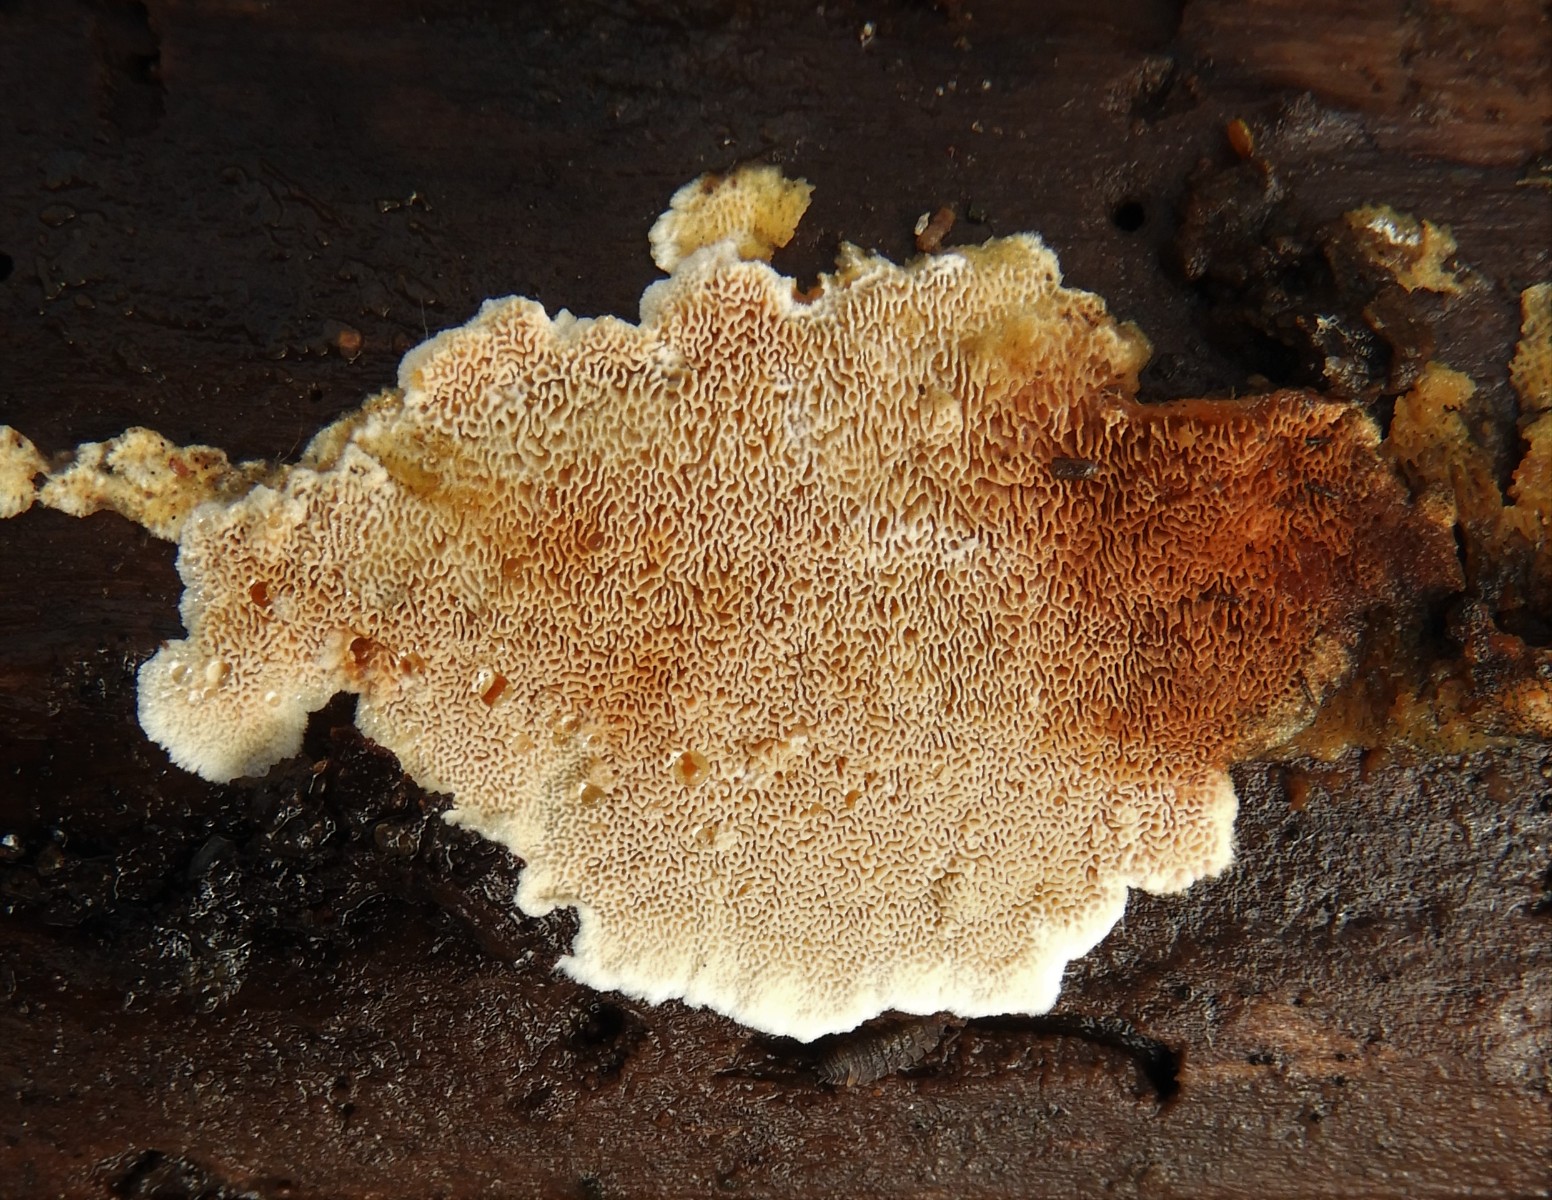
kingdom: Fungi
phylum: Basidiomycota
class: Agaricomycetes
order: Hymenochaetales
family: Schizoporaceae
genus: Xylodon
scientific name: Xylodon subtropicus
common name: labyrint-tandsvamp
